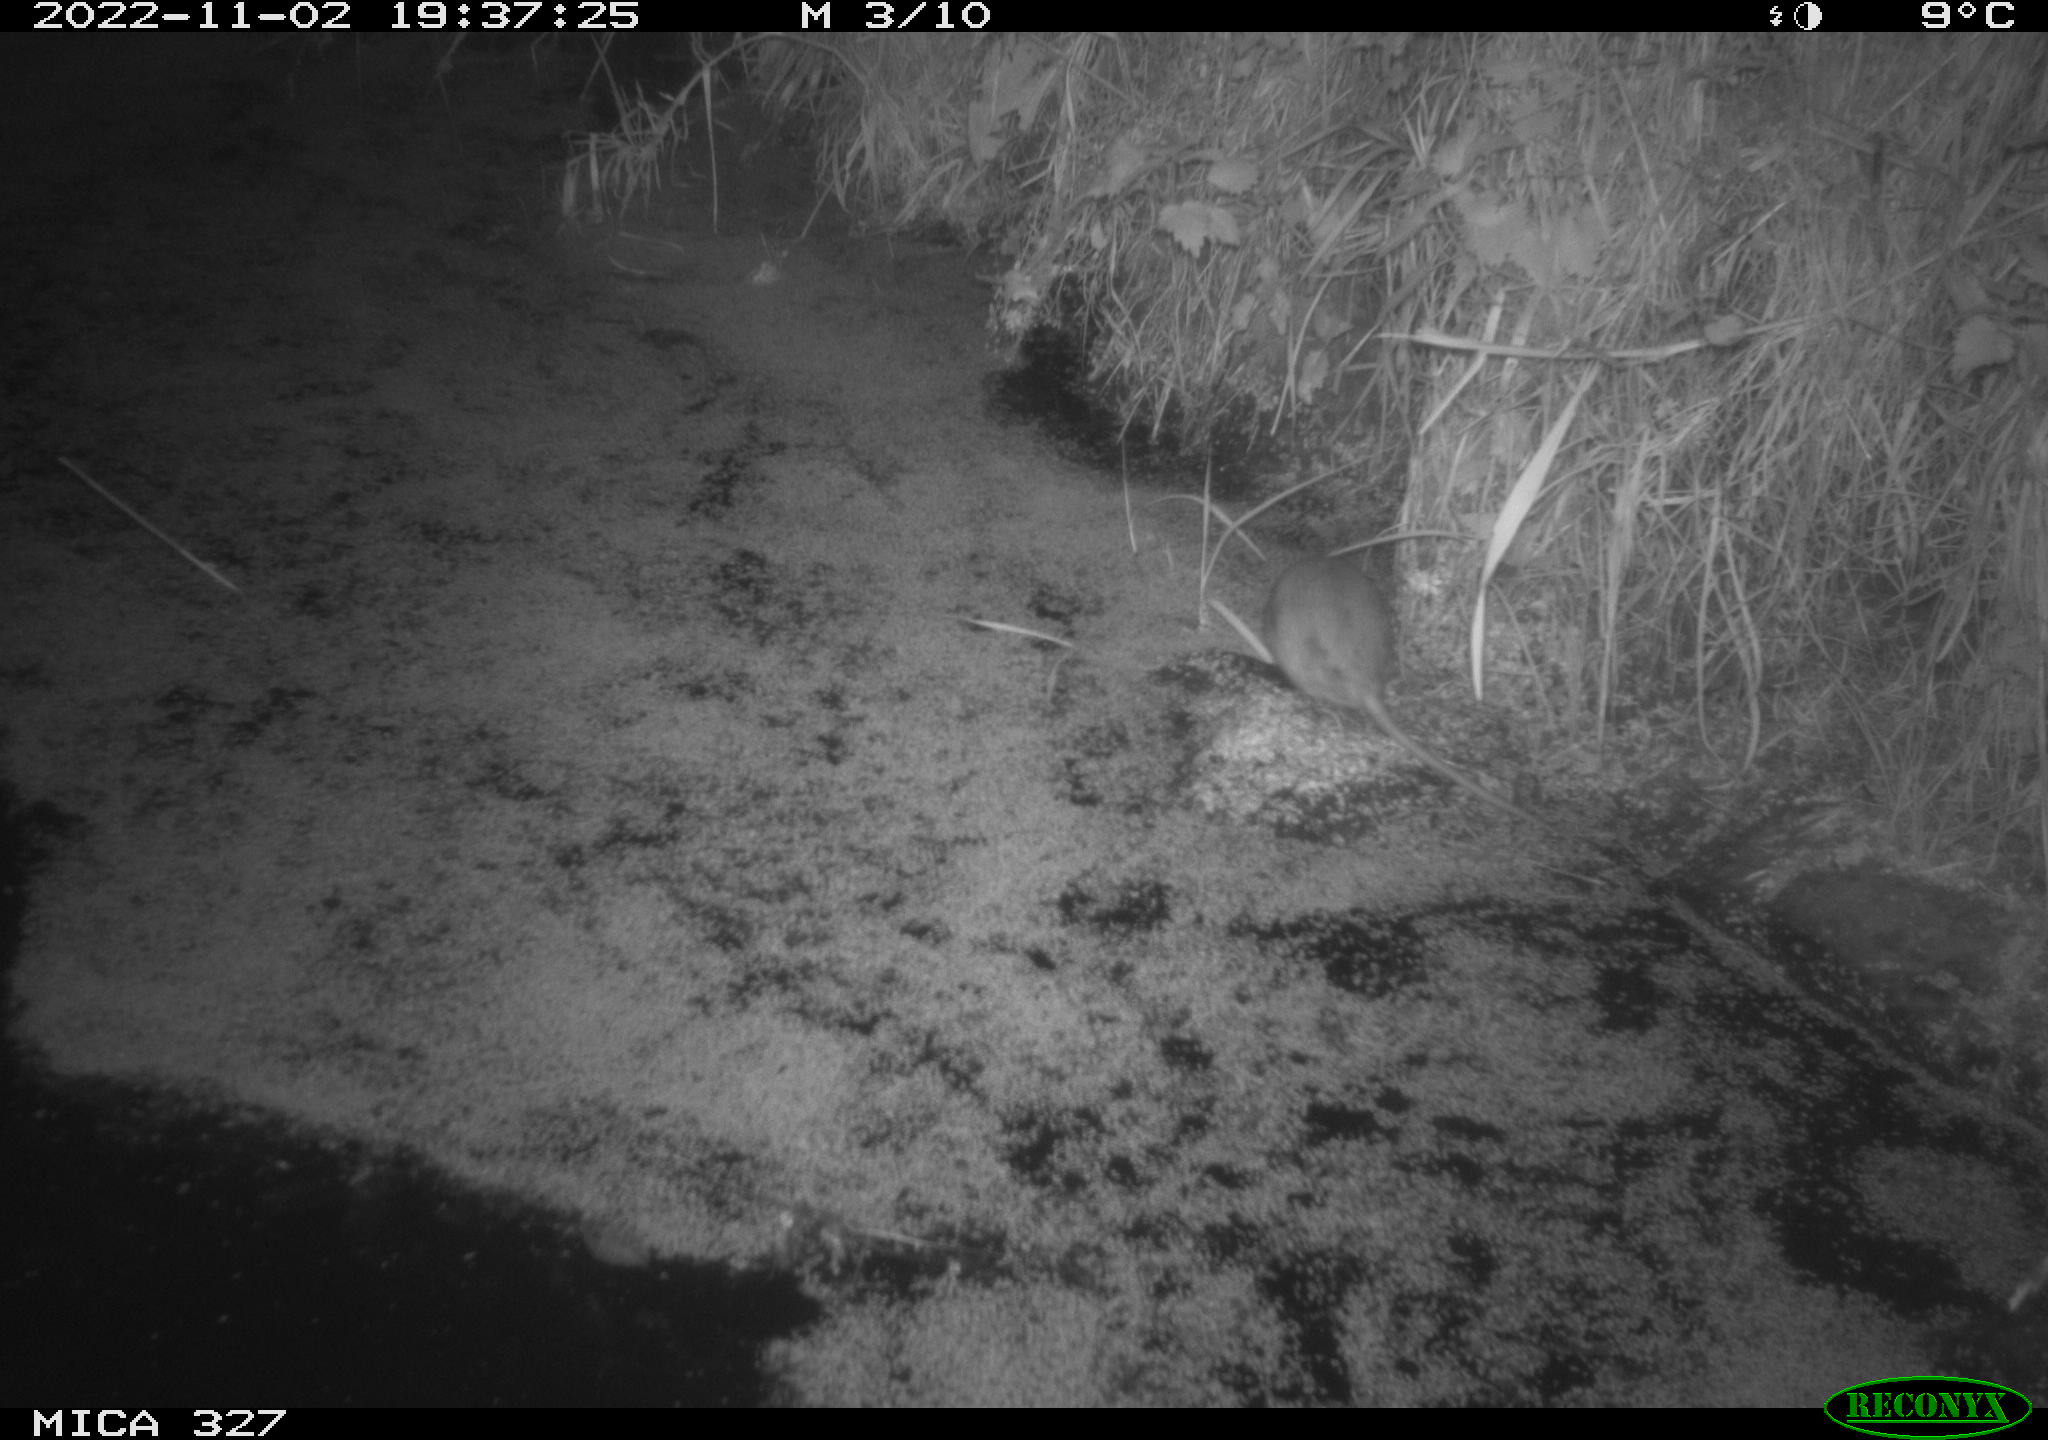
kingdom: Animalia
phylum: Chordata
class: Mammalia
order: Rodentia
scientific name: Rodentia
